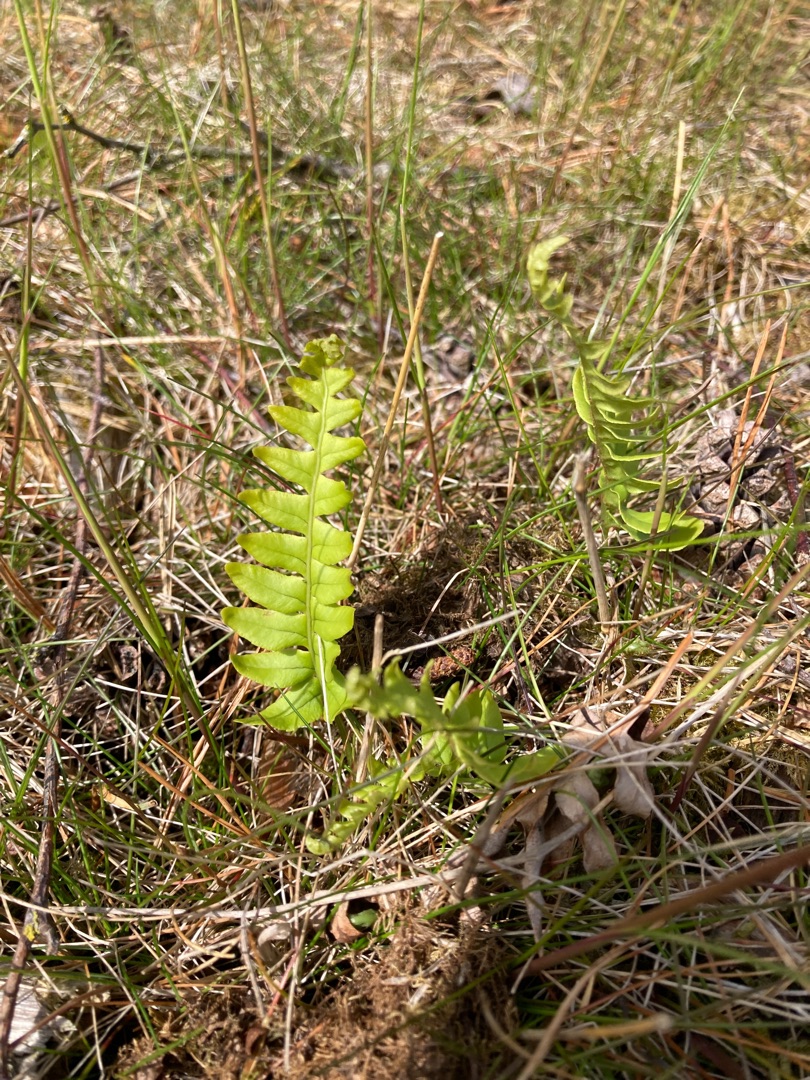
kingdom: Plantae
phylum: Tracheophyta
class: Polypodiopsida
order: Polypodiales
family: Polypodiaceae
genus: Polypodium
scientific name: Polypodium vulgare
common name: Almindelig engelsød
